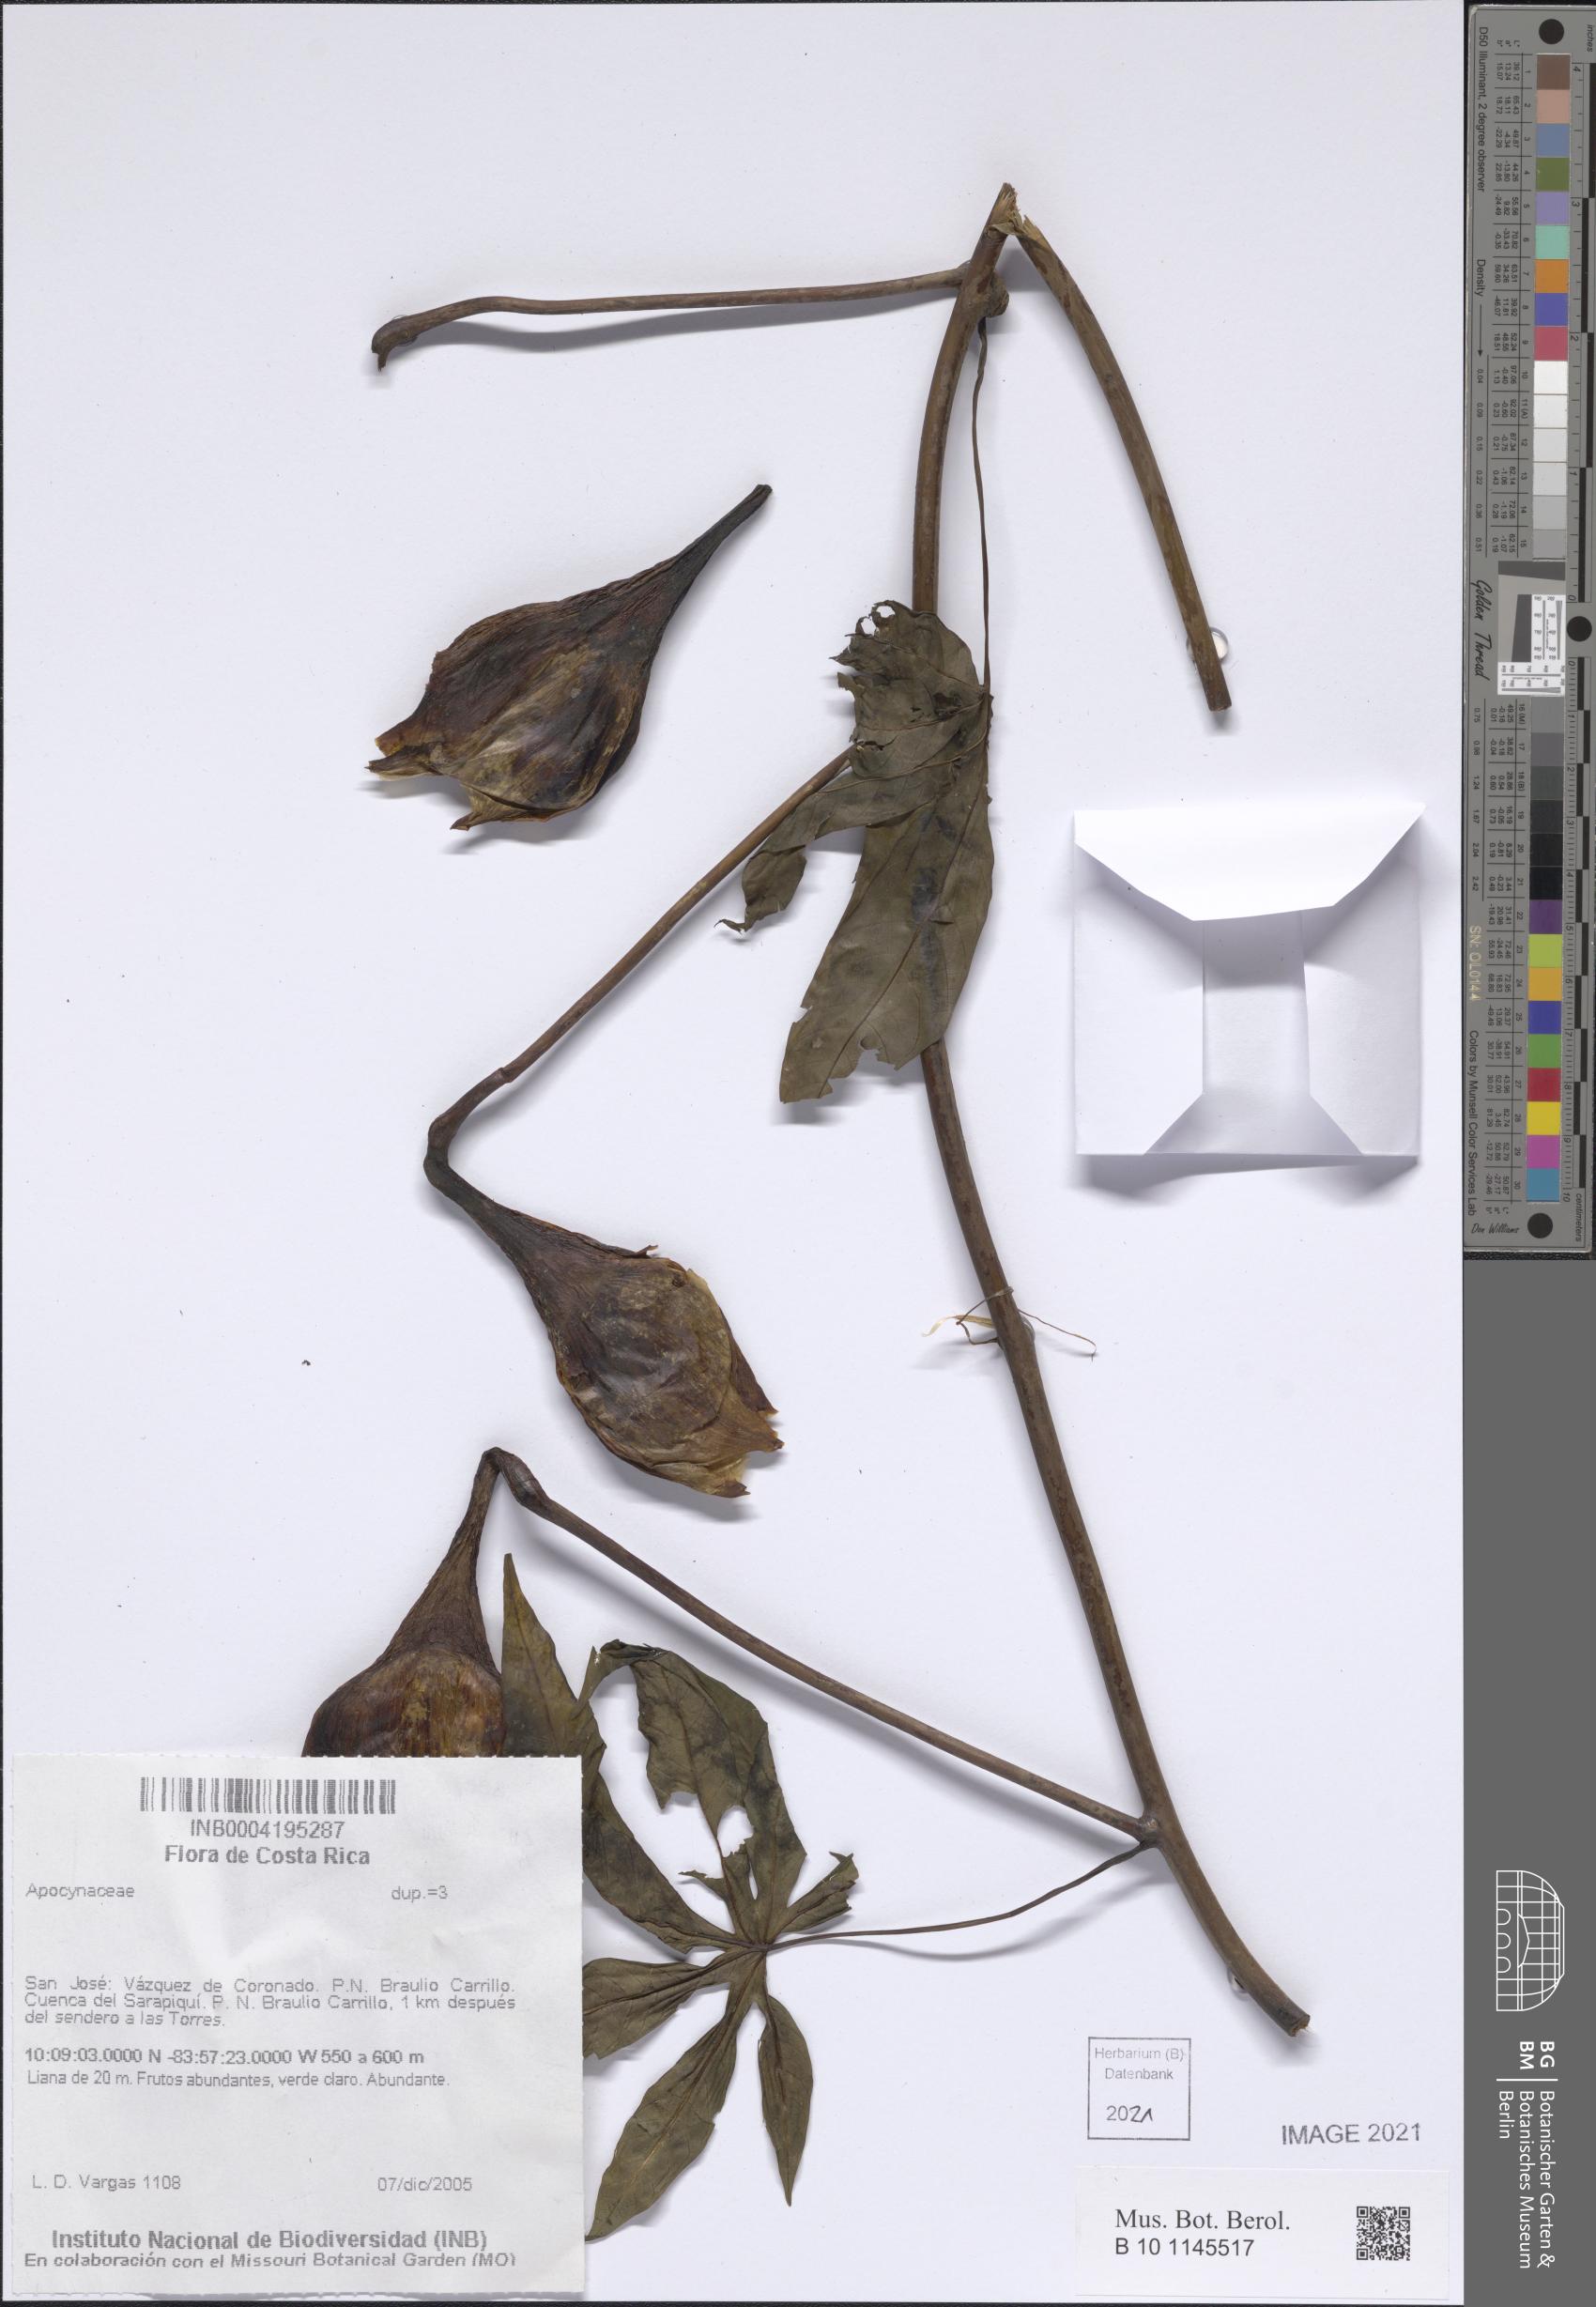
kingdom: Plantae
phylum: Tracheophyta
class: Magnoliopsida
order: Gentianales
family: Apocynaceae
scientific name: Apocynaceae
